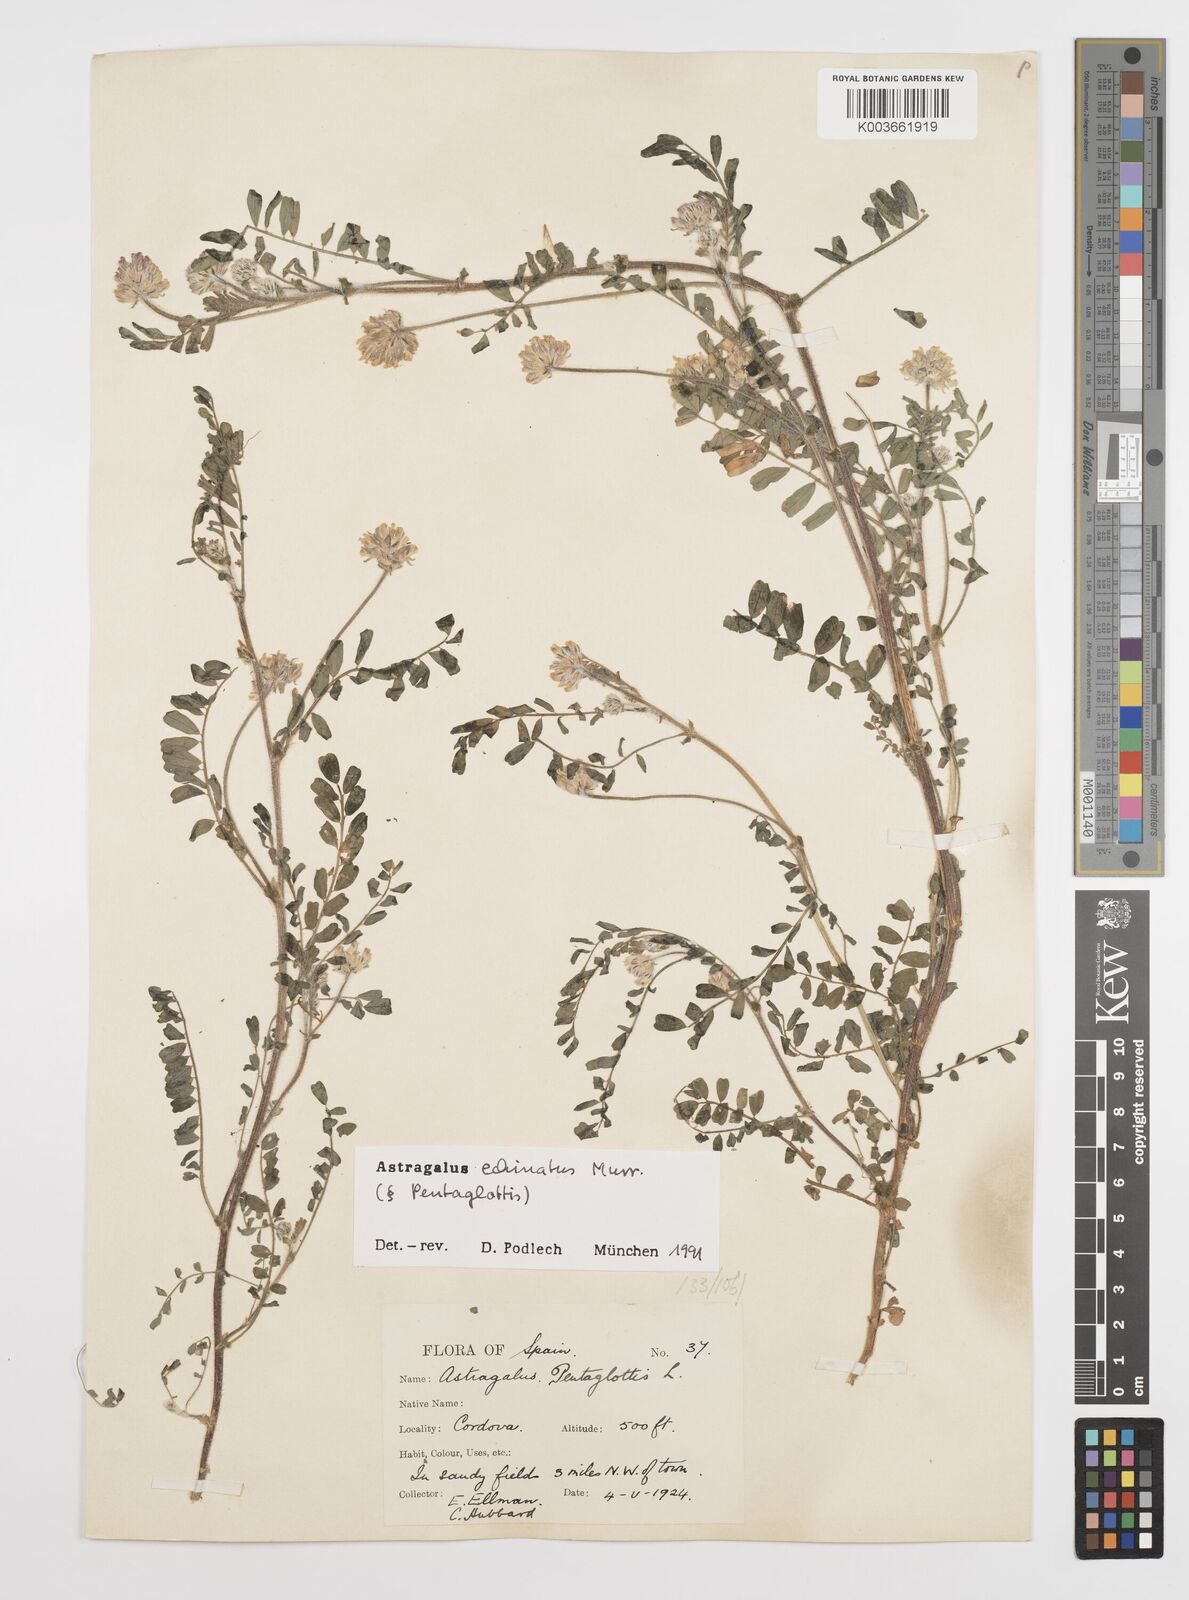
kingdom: Plantae
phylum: Tracheophyta
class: Magnoliopsida
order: Fabales
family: Fabaceae
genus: Astragalus
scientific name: Astragalus echinatus
